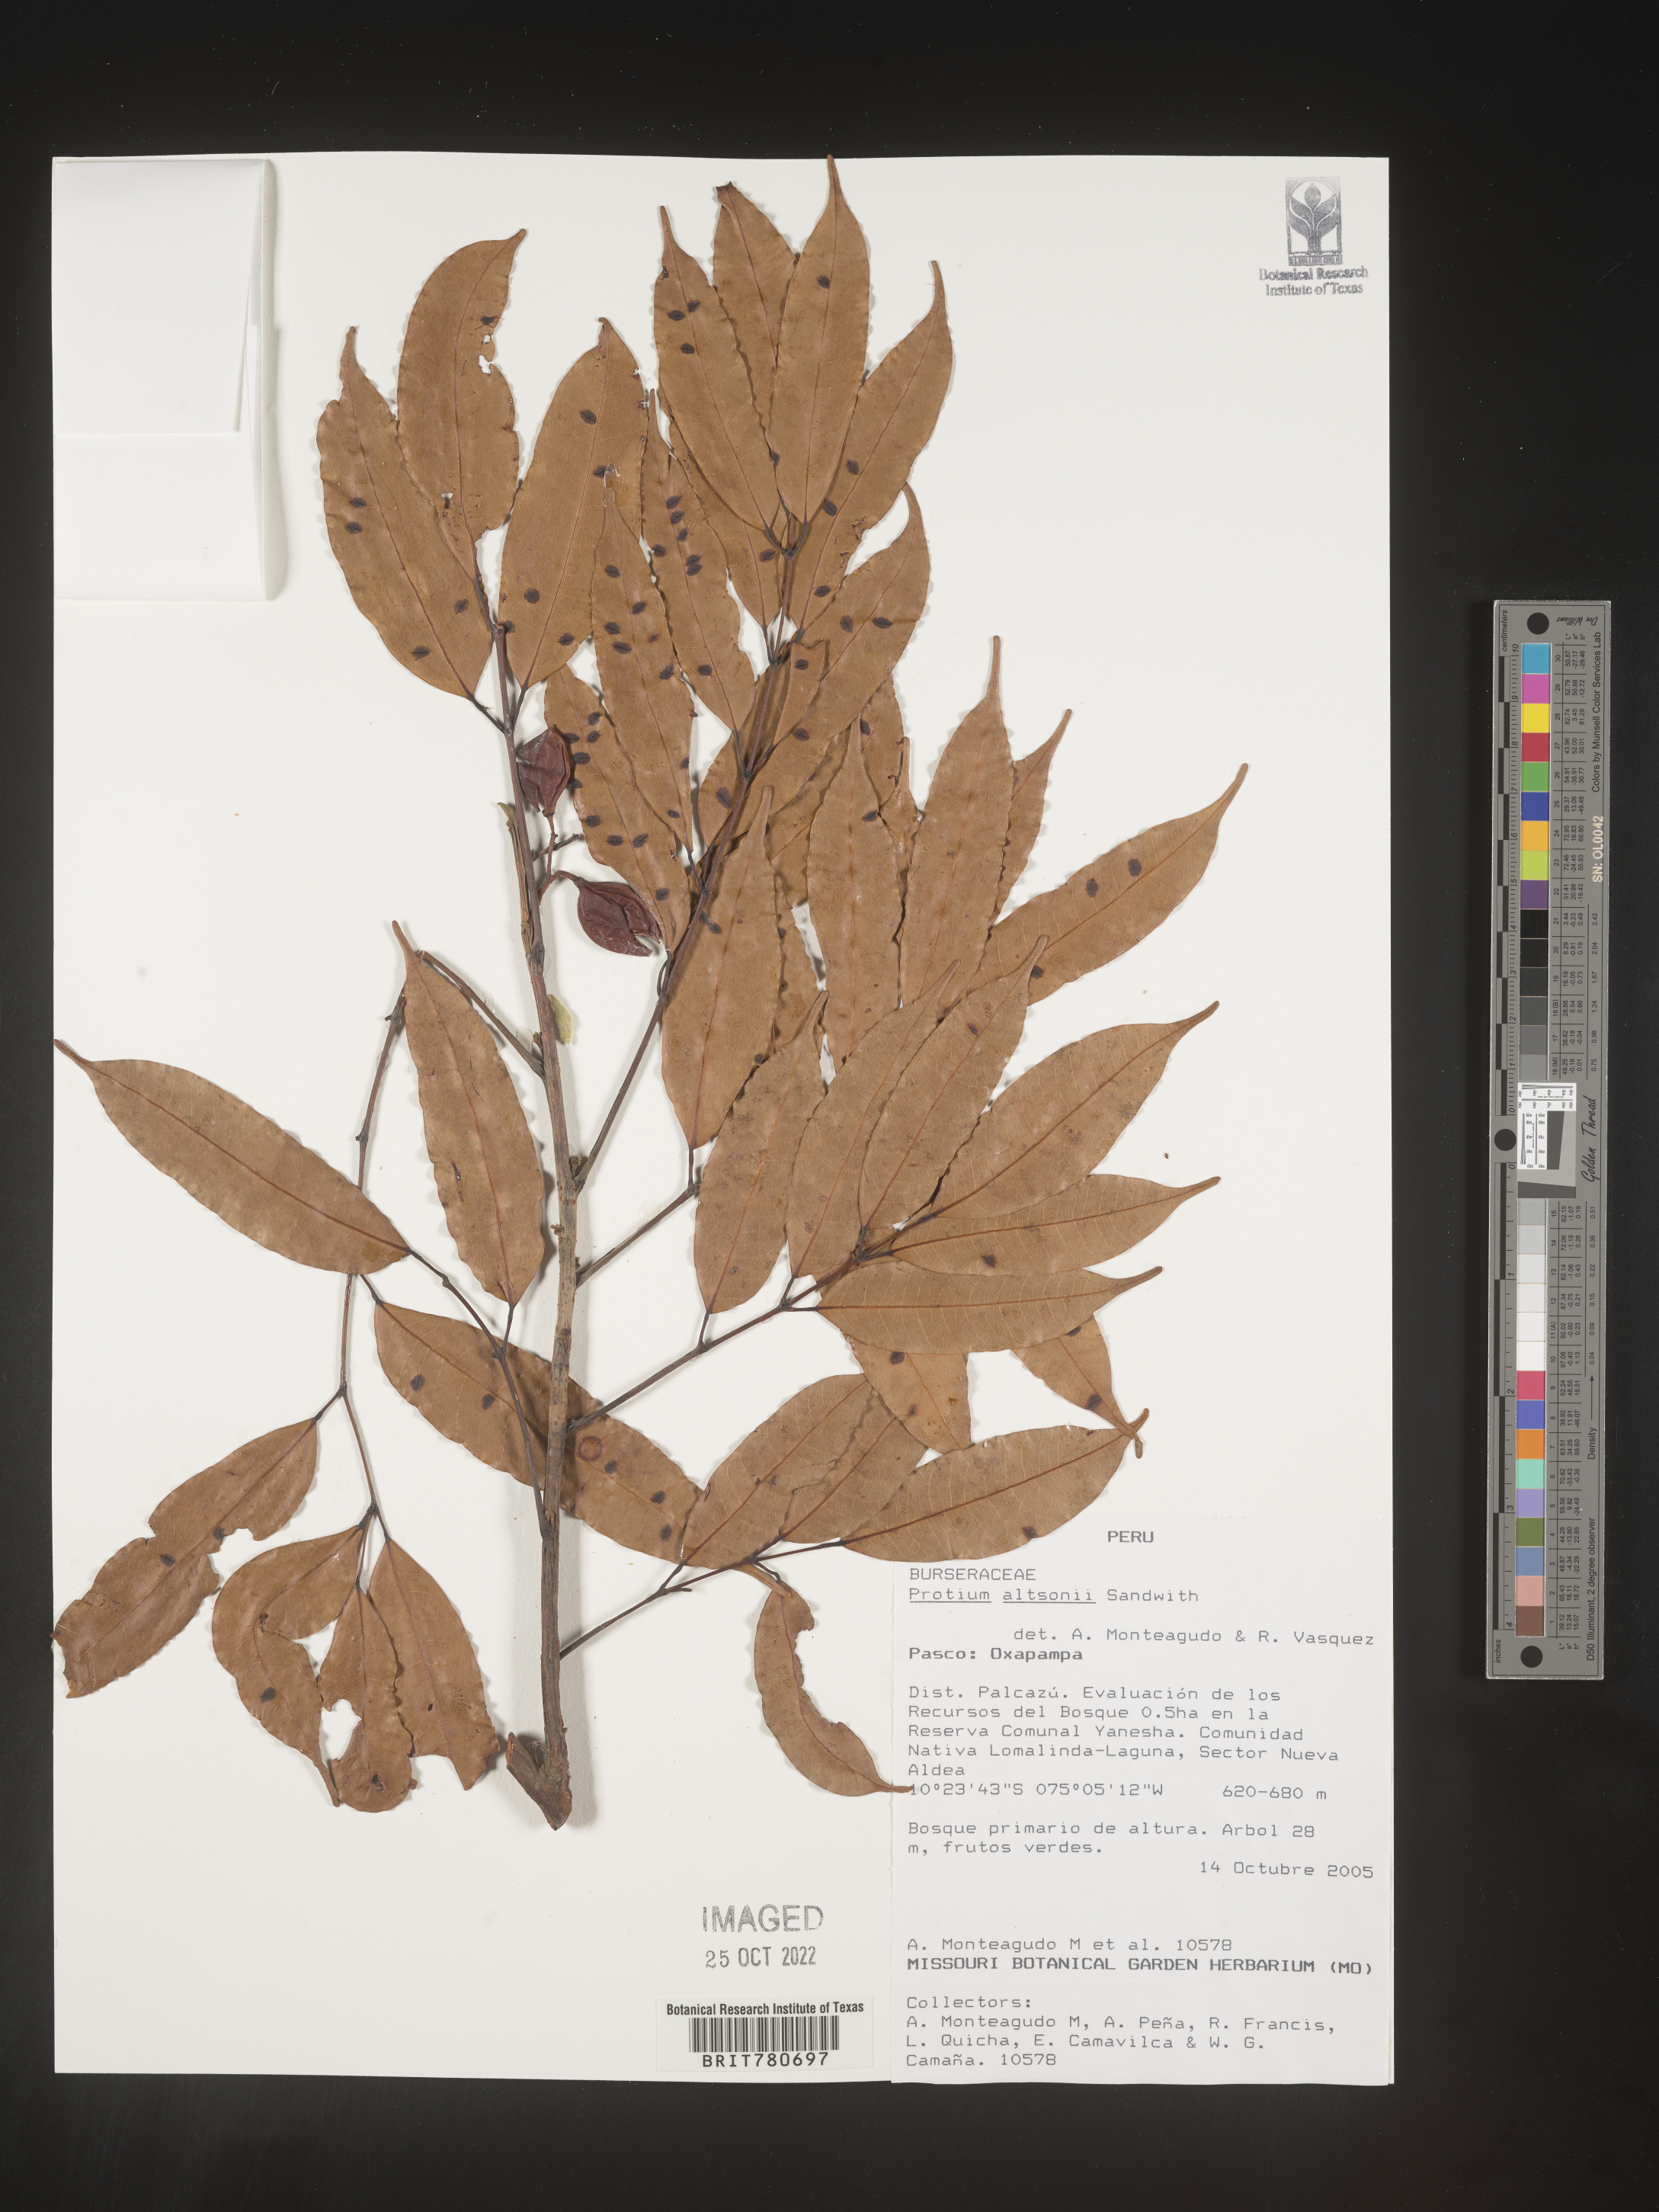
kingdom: Plantae
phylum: Tracheophyta
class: Magnoliopsida
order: Sapindales
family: Burseraceae
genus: Protium
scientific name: Protium
